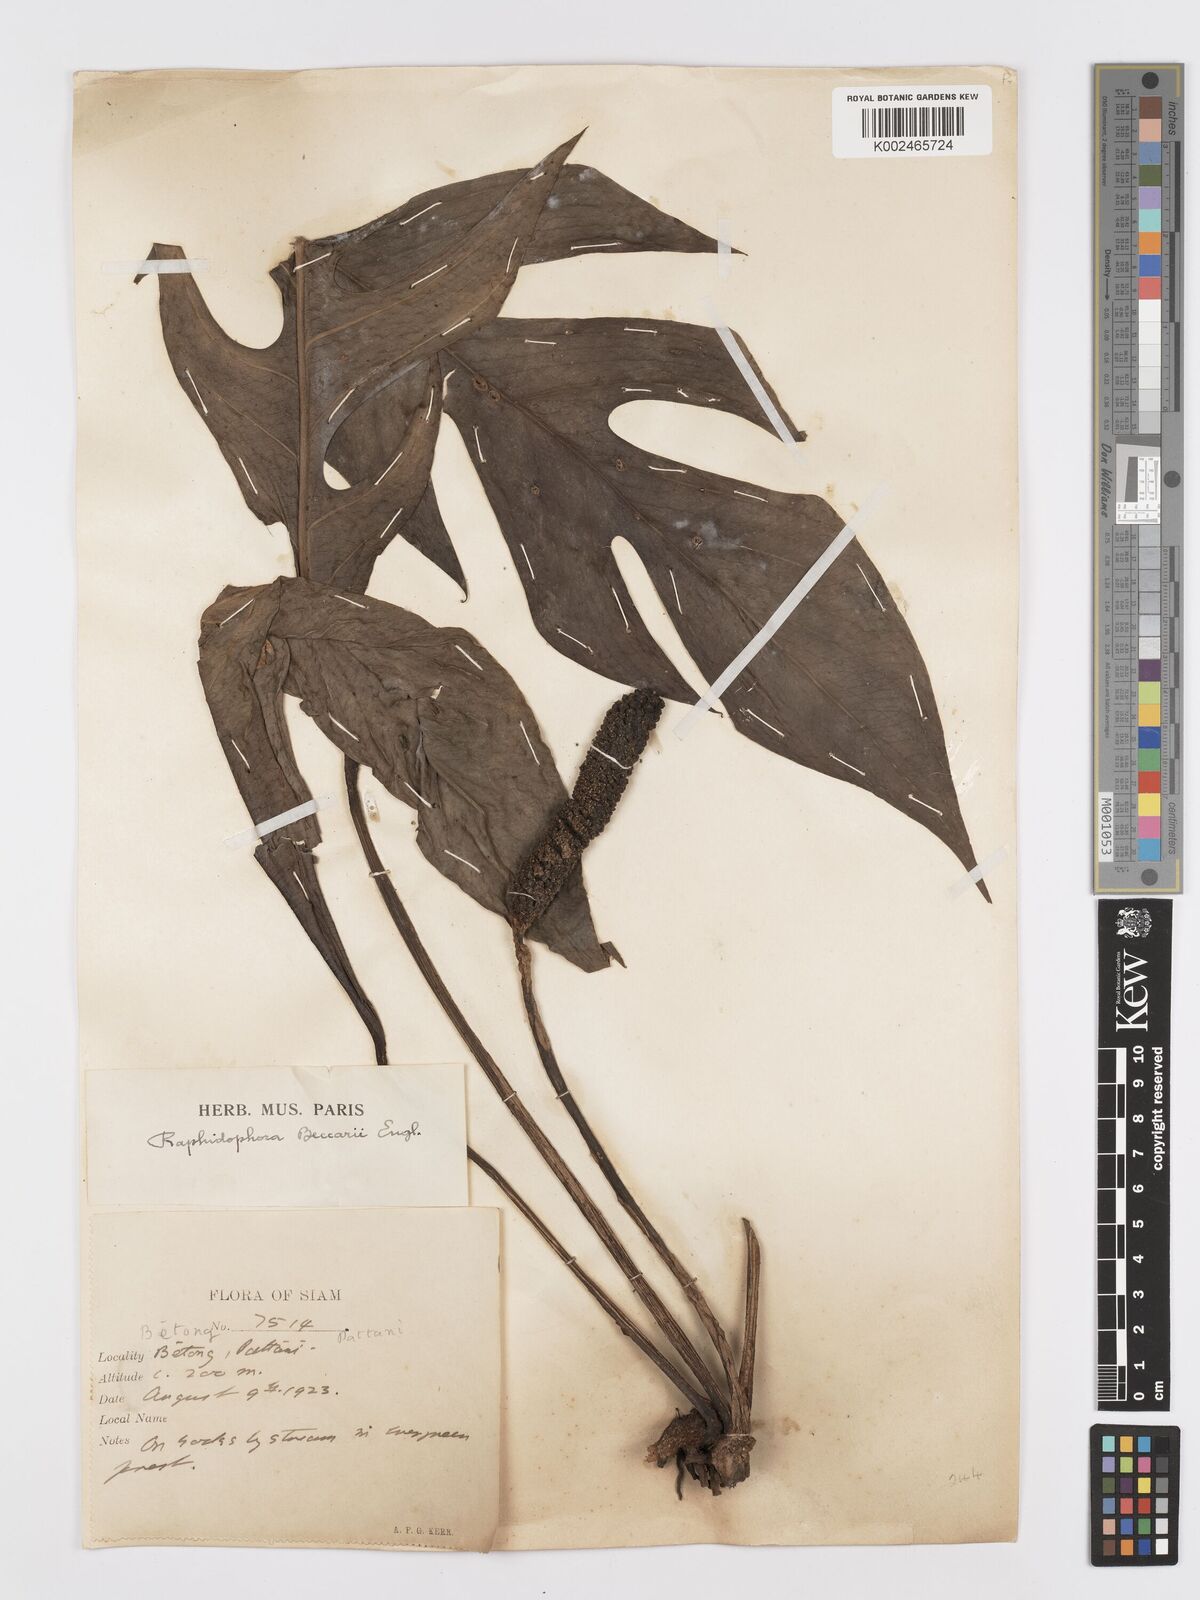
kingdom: Plantae
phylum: Tracheophyta
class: Liliopsida
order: Alismatales
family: Araceae
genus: Rhaphidophora
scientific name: Rhaphidophora beccarii
